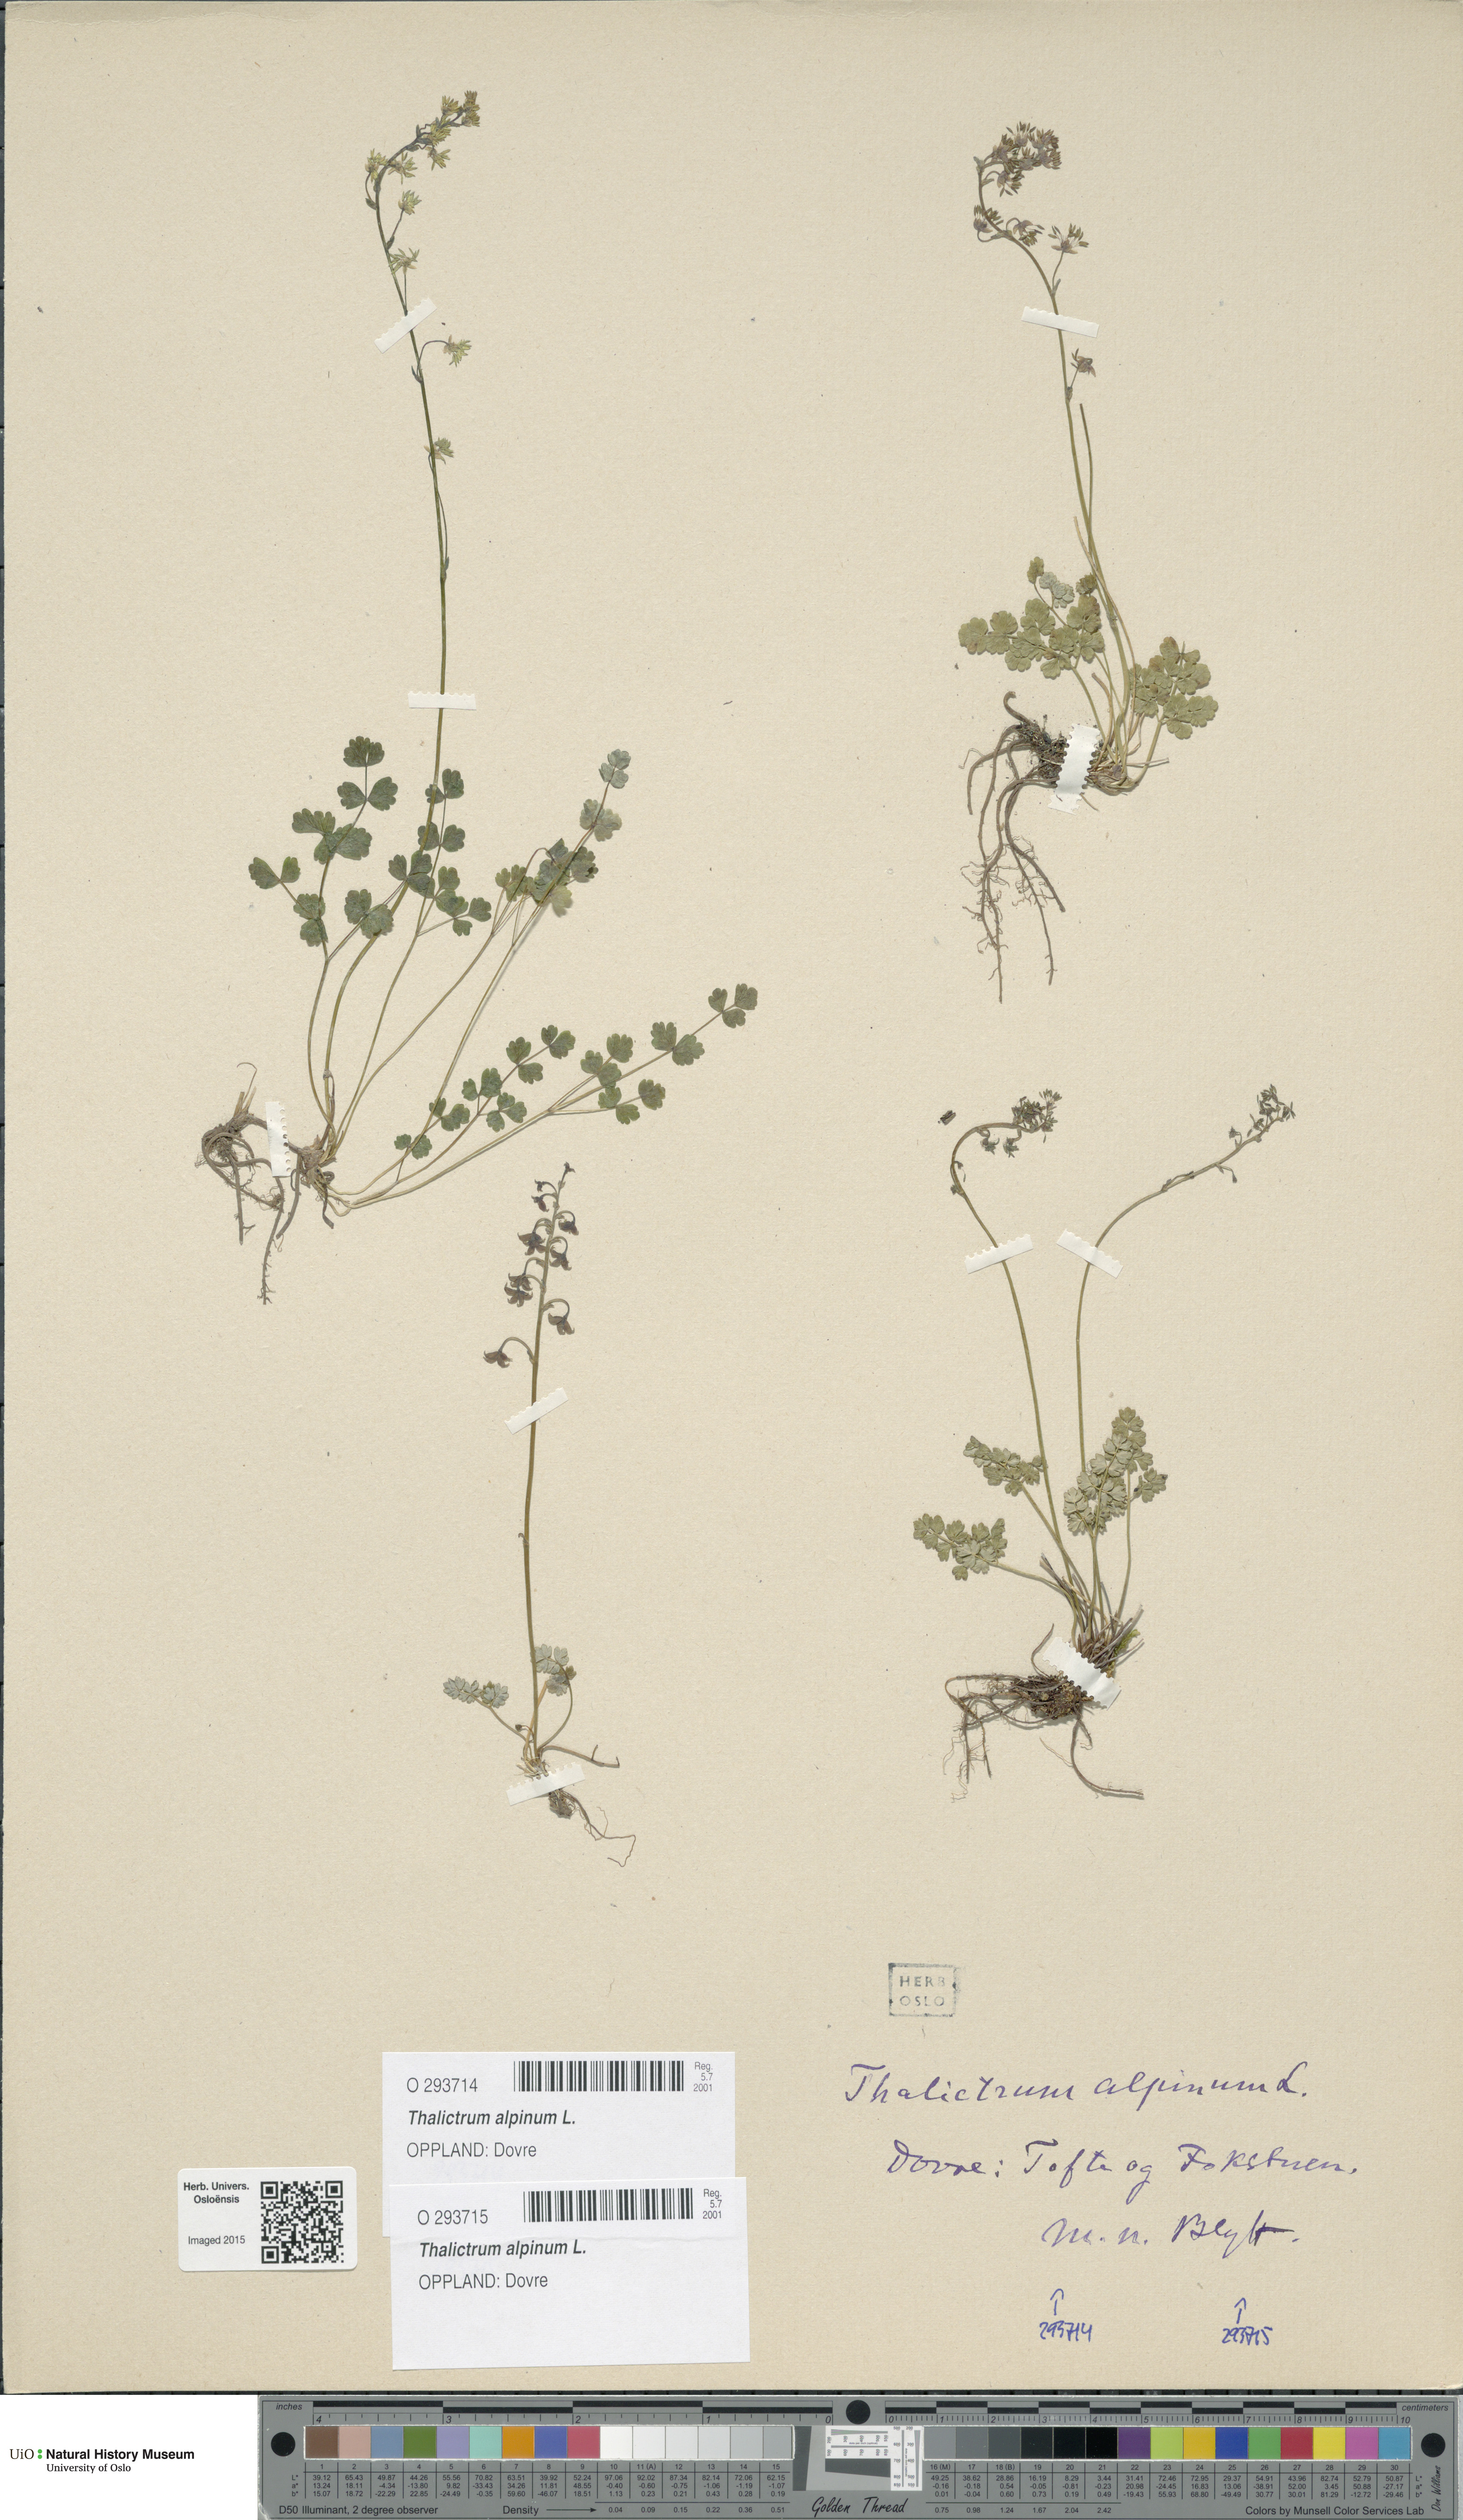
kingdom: Plantae
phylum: Tracheophyta
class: Magnoliopsida
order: Ranunculales
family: Ranunculaceae
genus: Thalictrum
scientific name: Thalictrum alpinum
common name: Alpine meadow-rue
